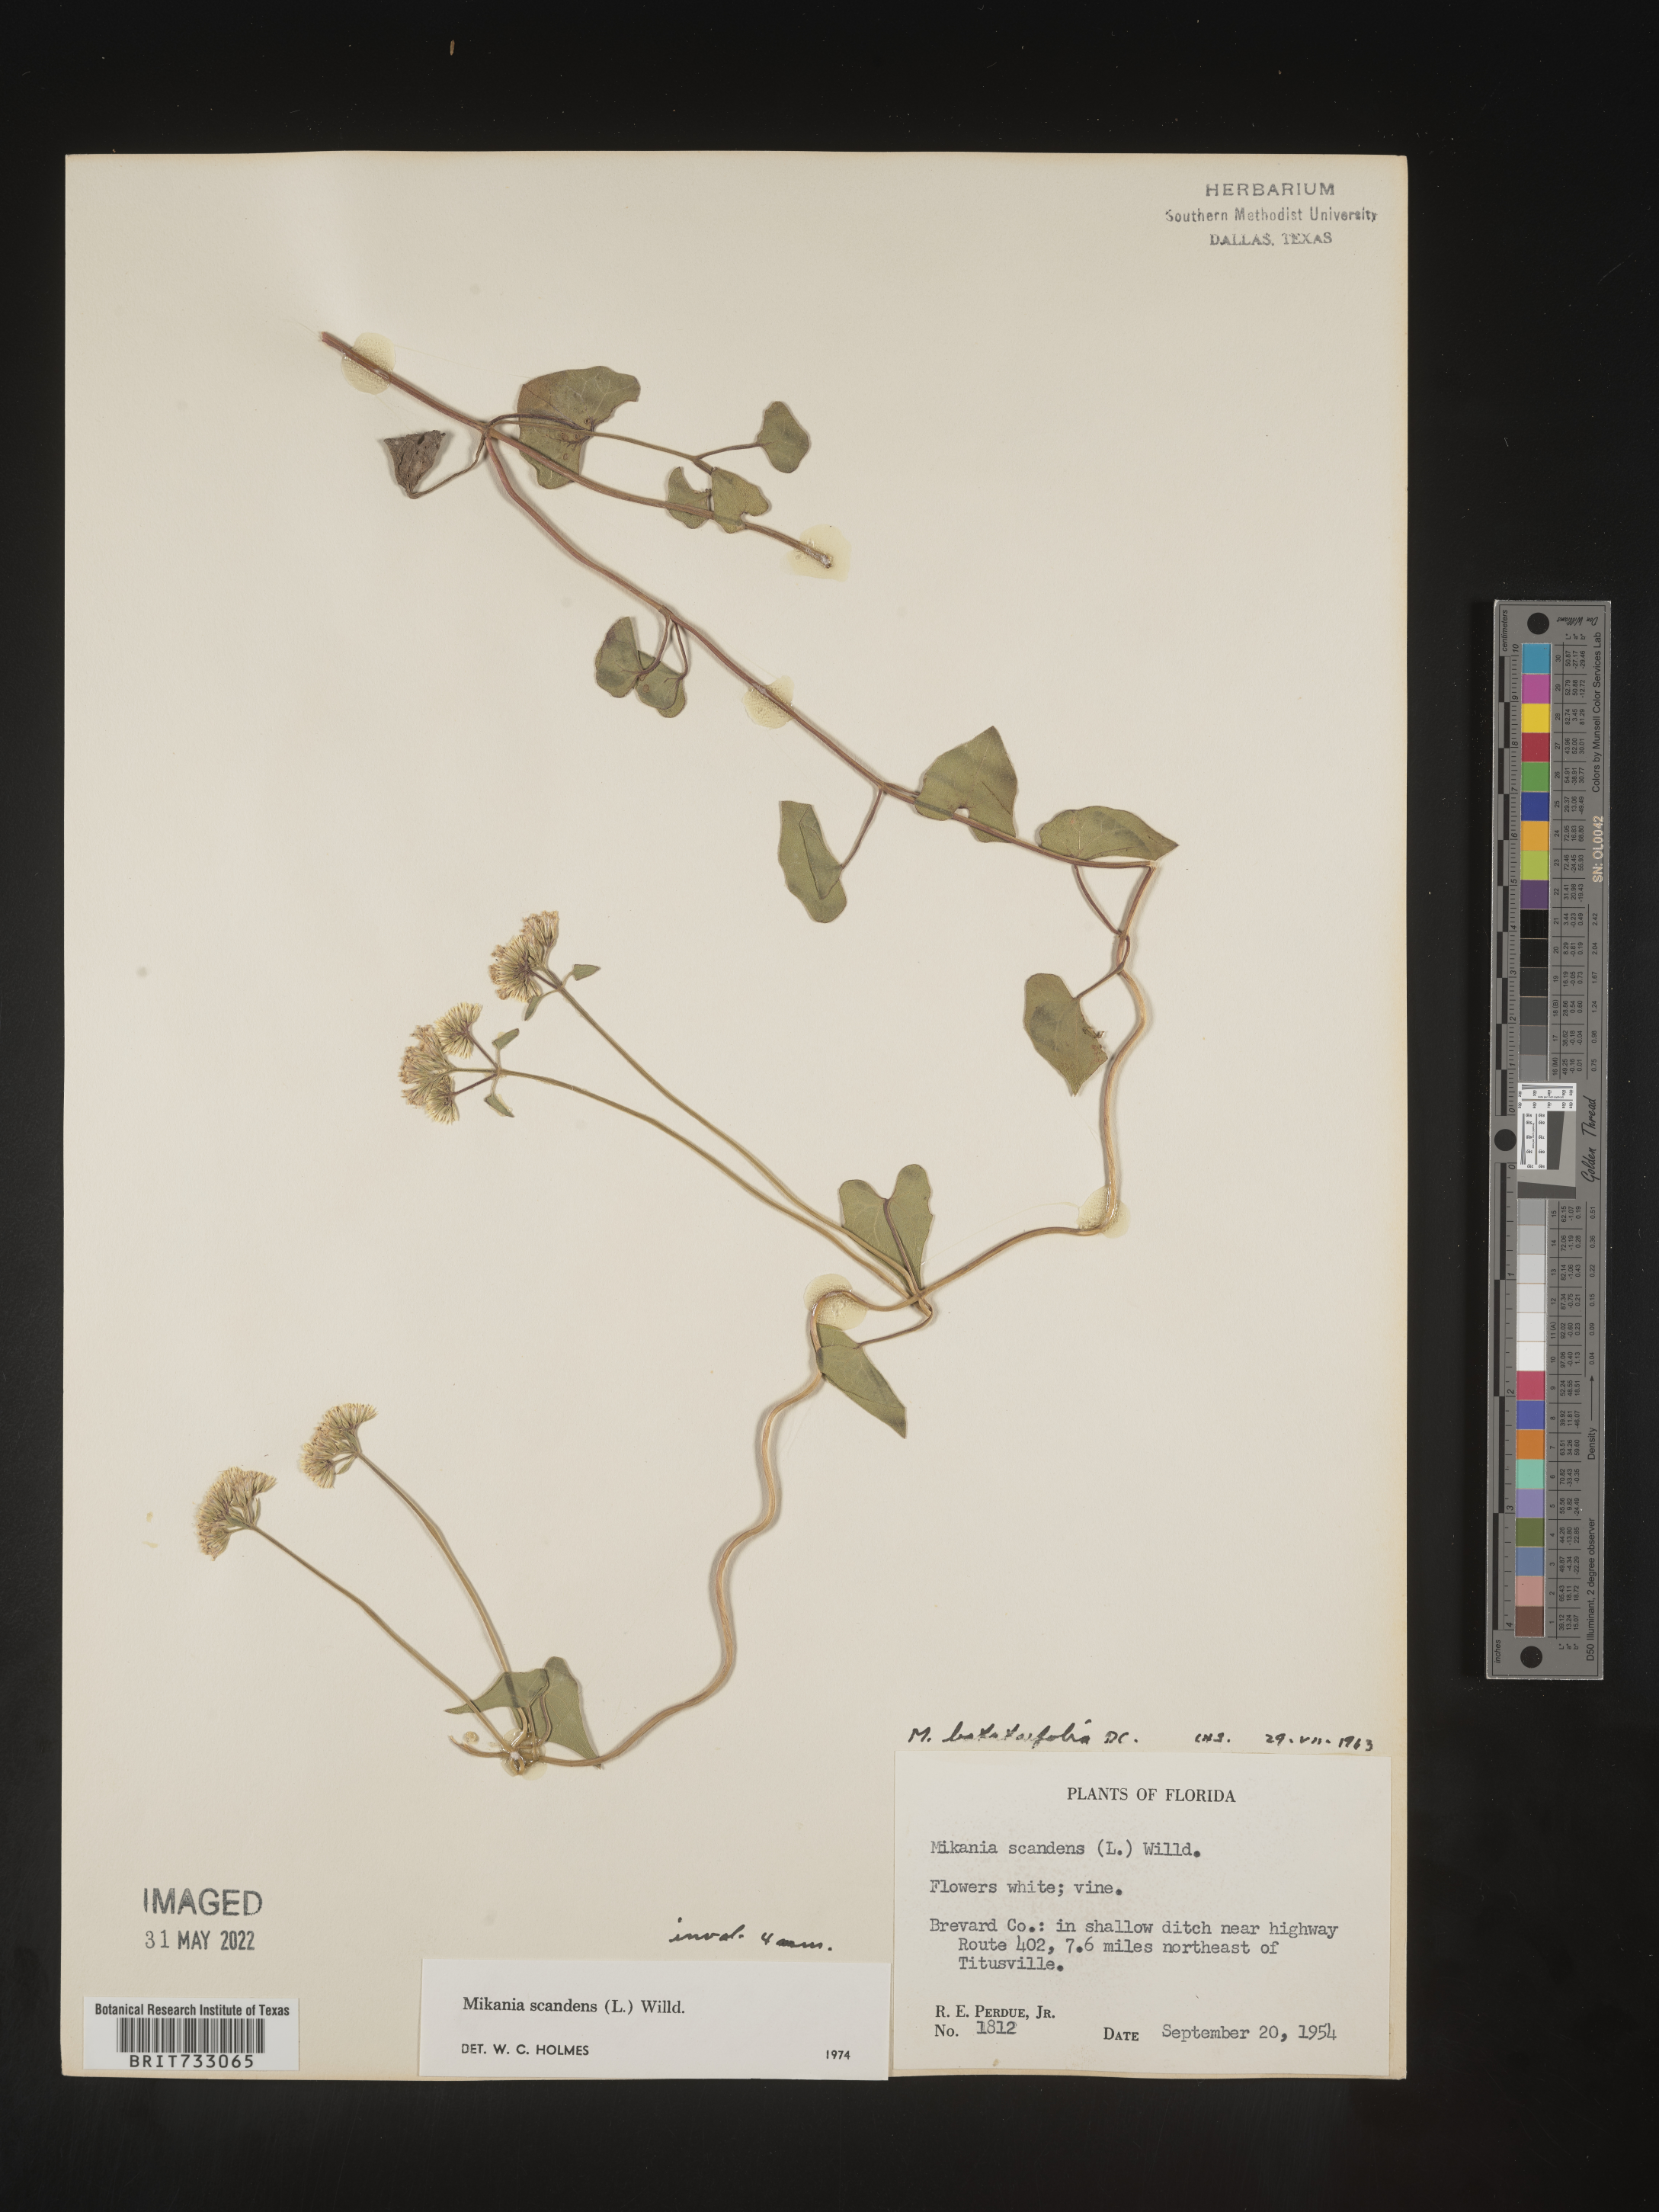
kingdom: Plantae
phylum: Tracheophyta
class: Magnoliopsida
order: Asterales
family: Asteraceae
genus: Mikania
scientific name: Mikania scandens
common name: Climbing hempvine
